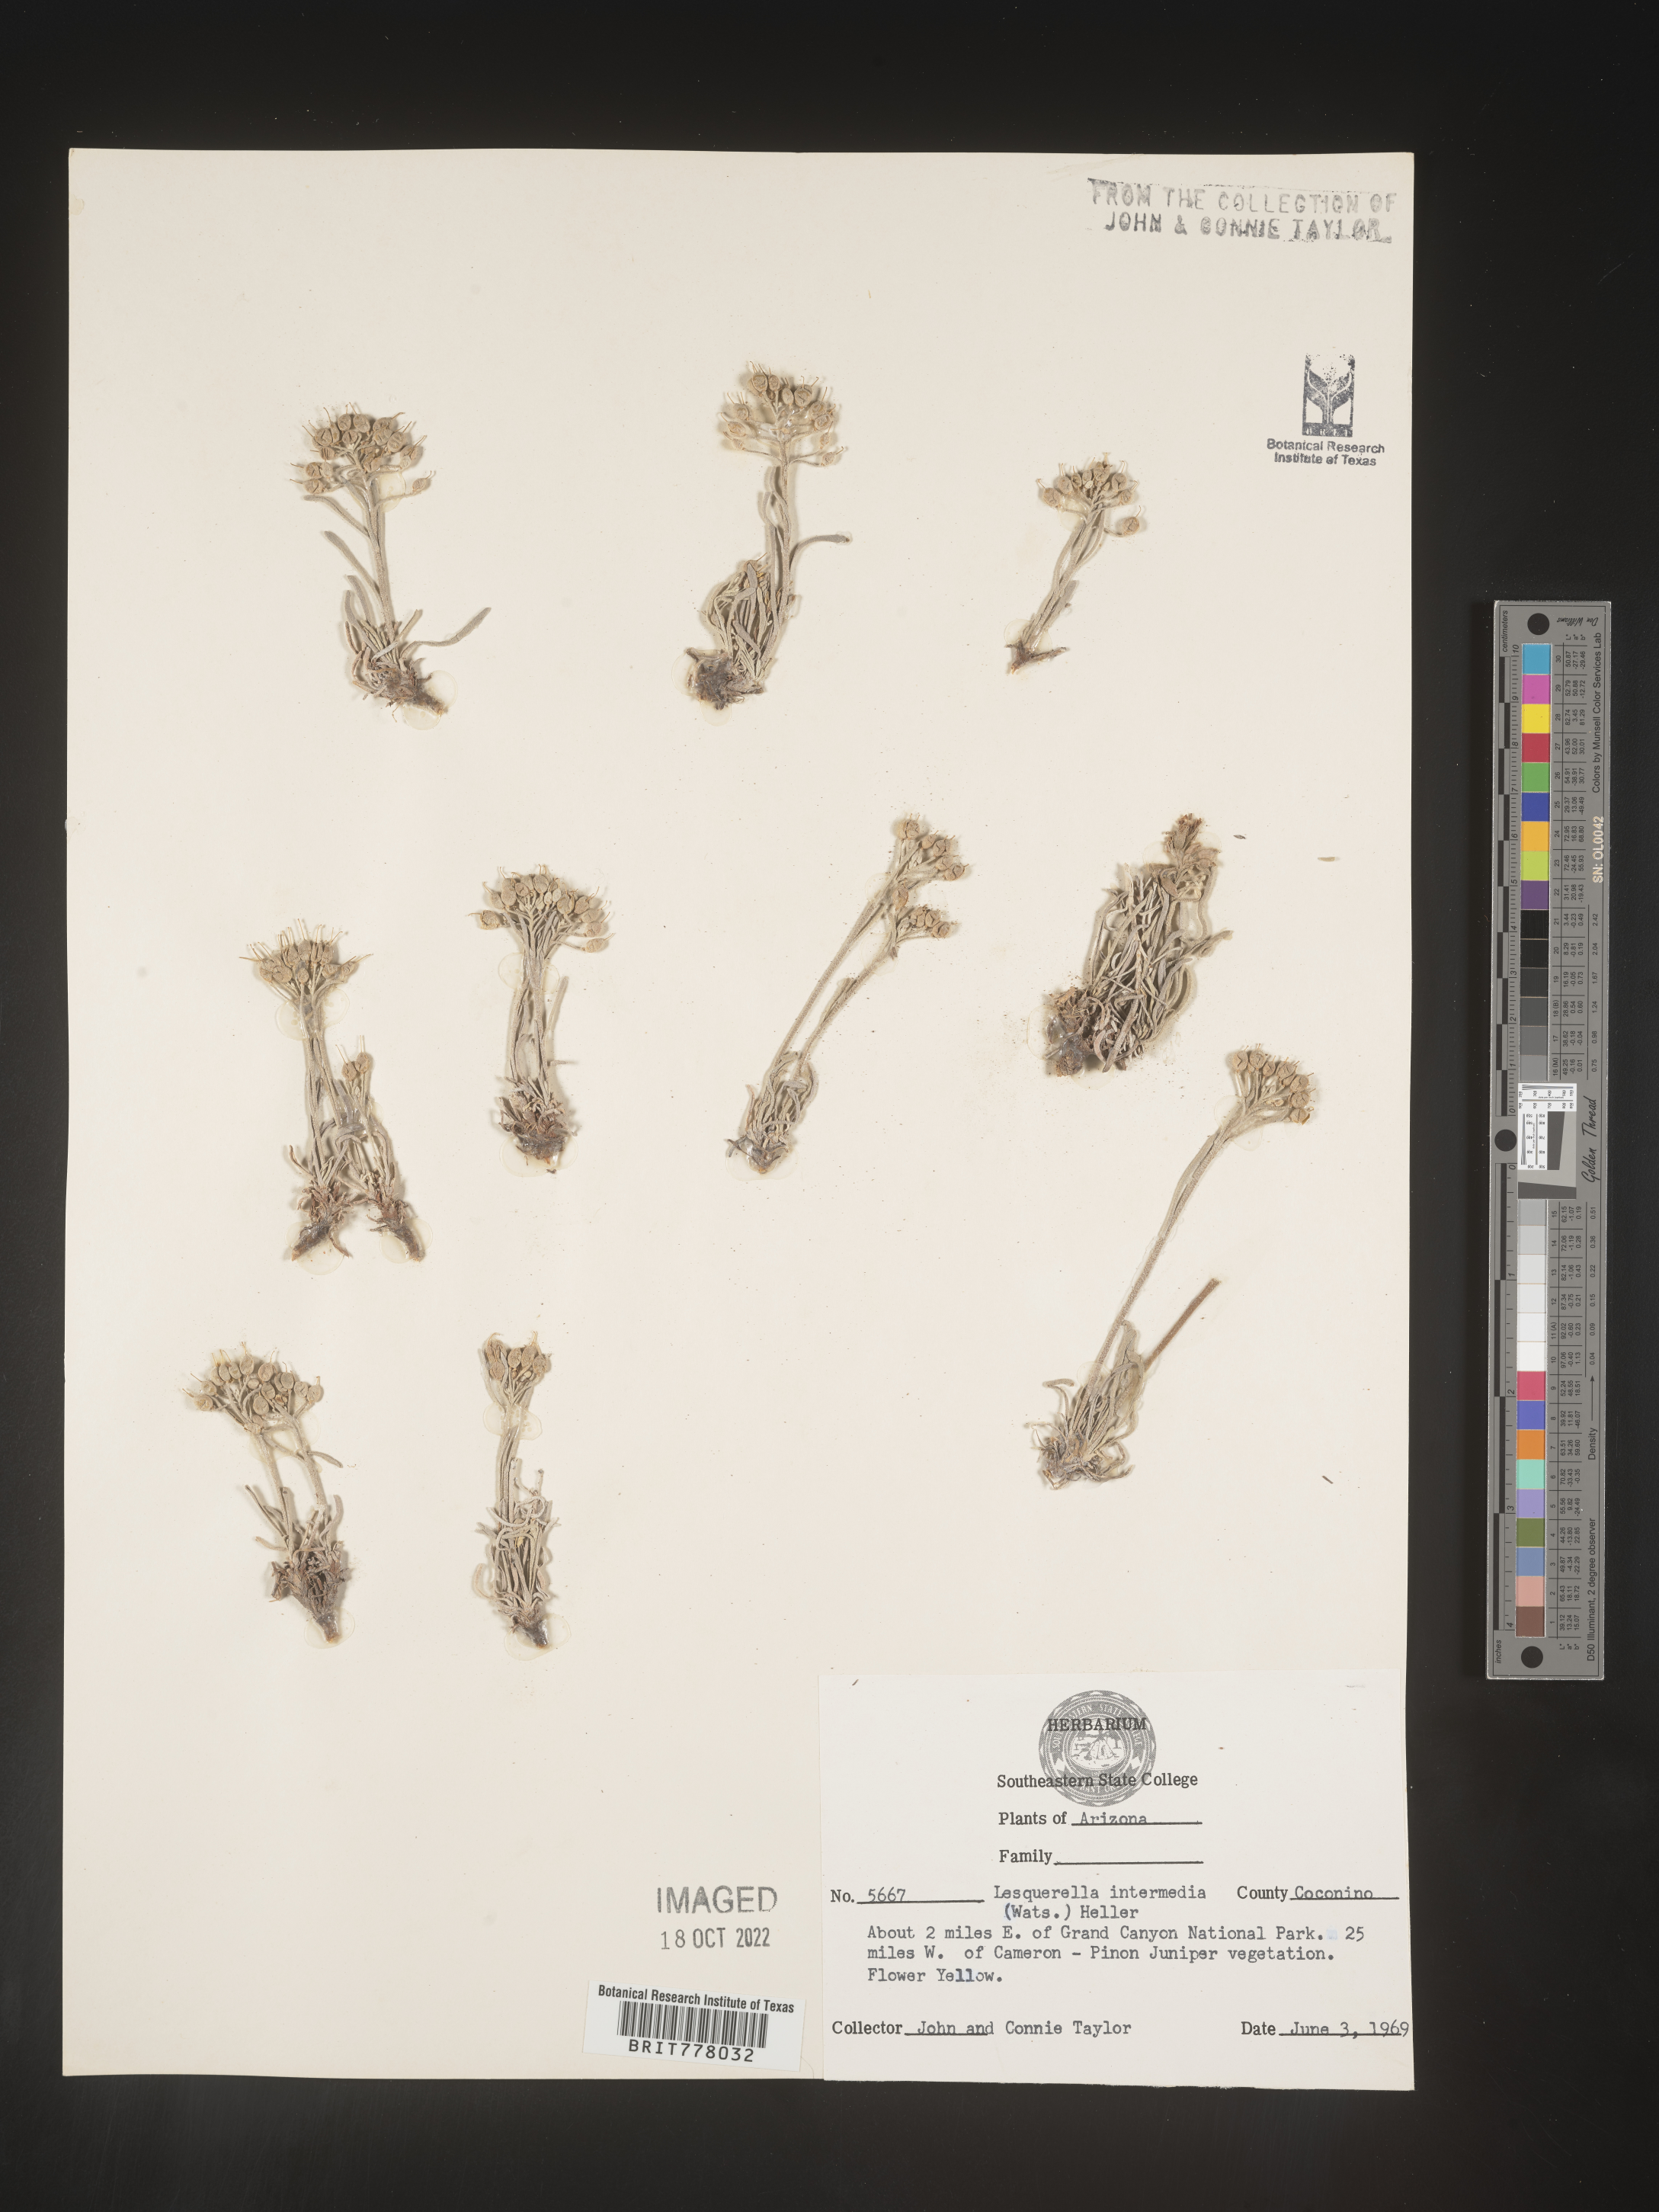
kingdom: Chromista
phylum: Cercozoa
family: Psammonobiotidae
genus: Lesquerella
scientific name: Lesquerella
